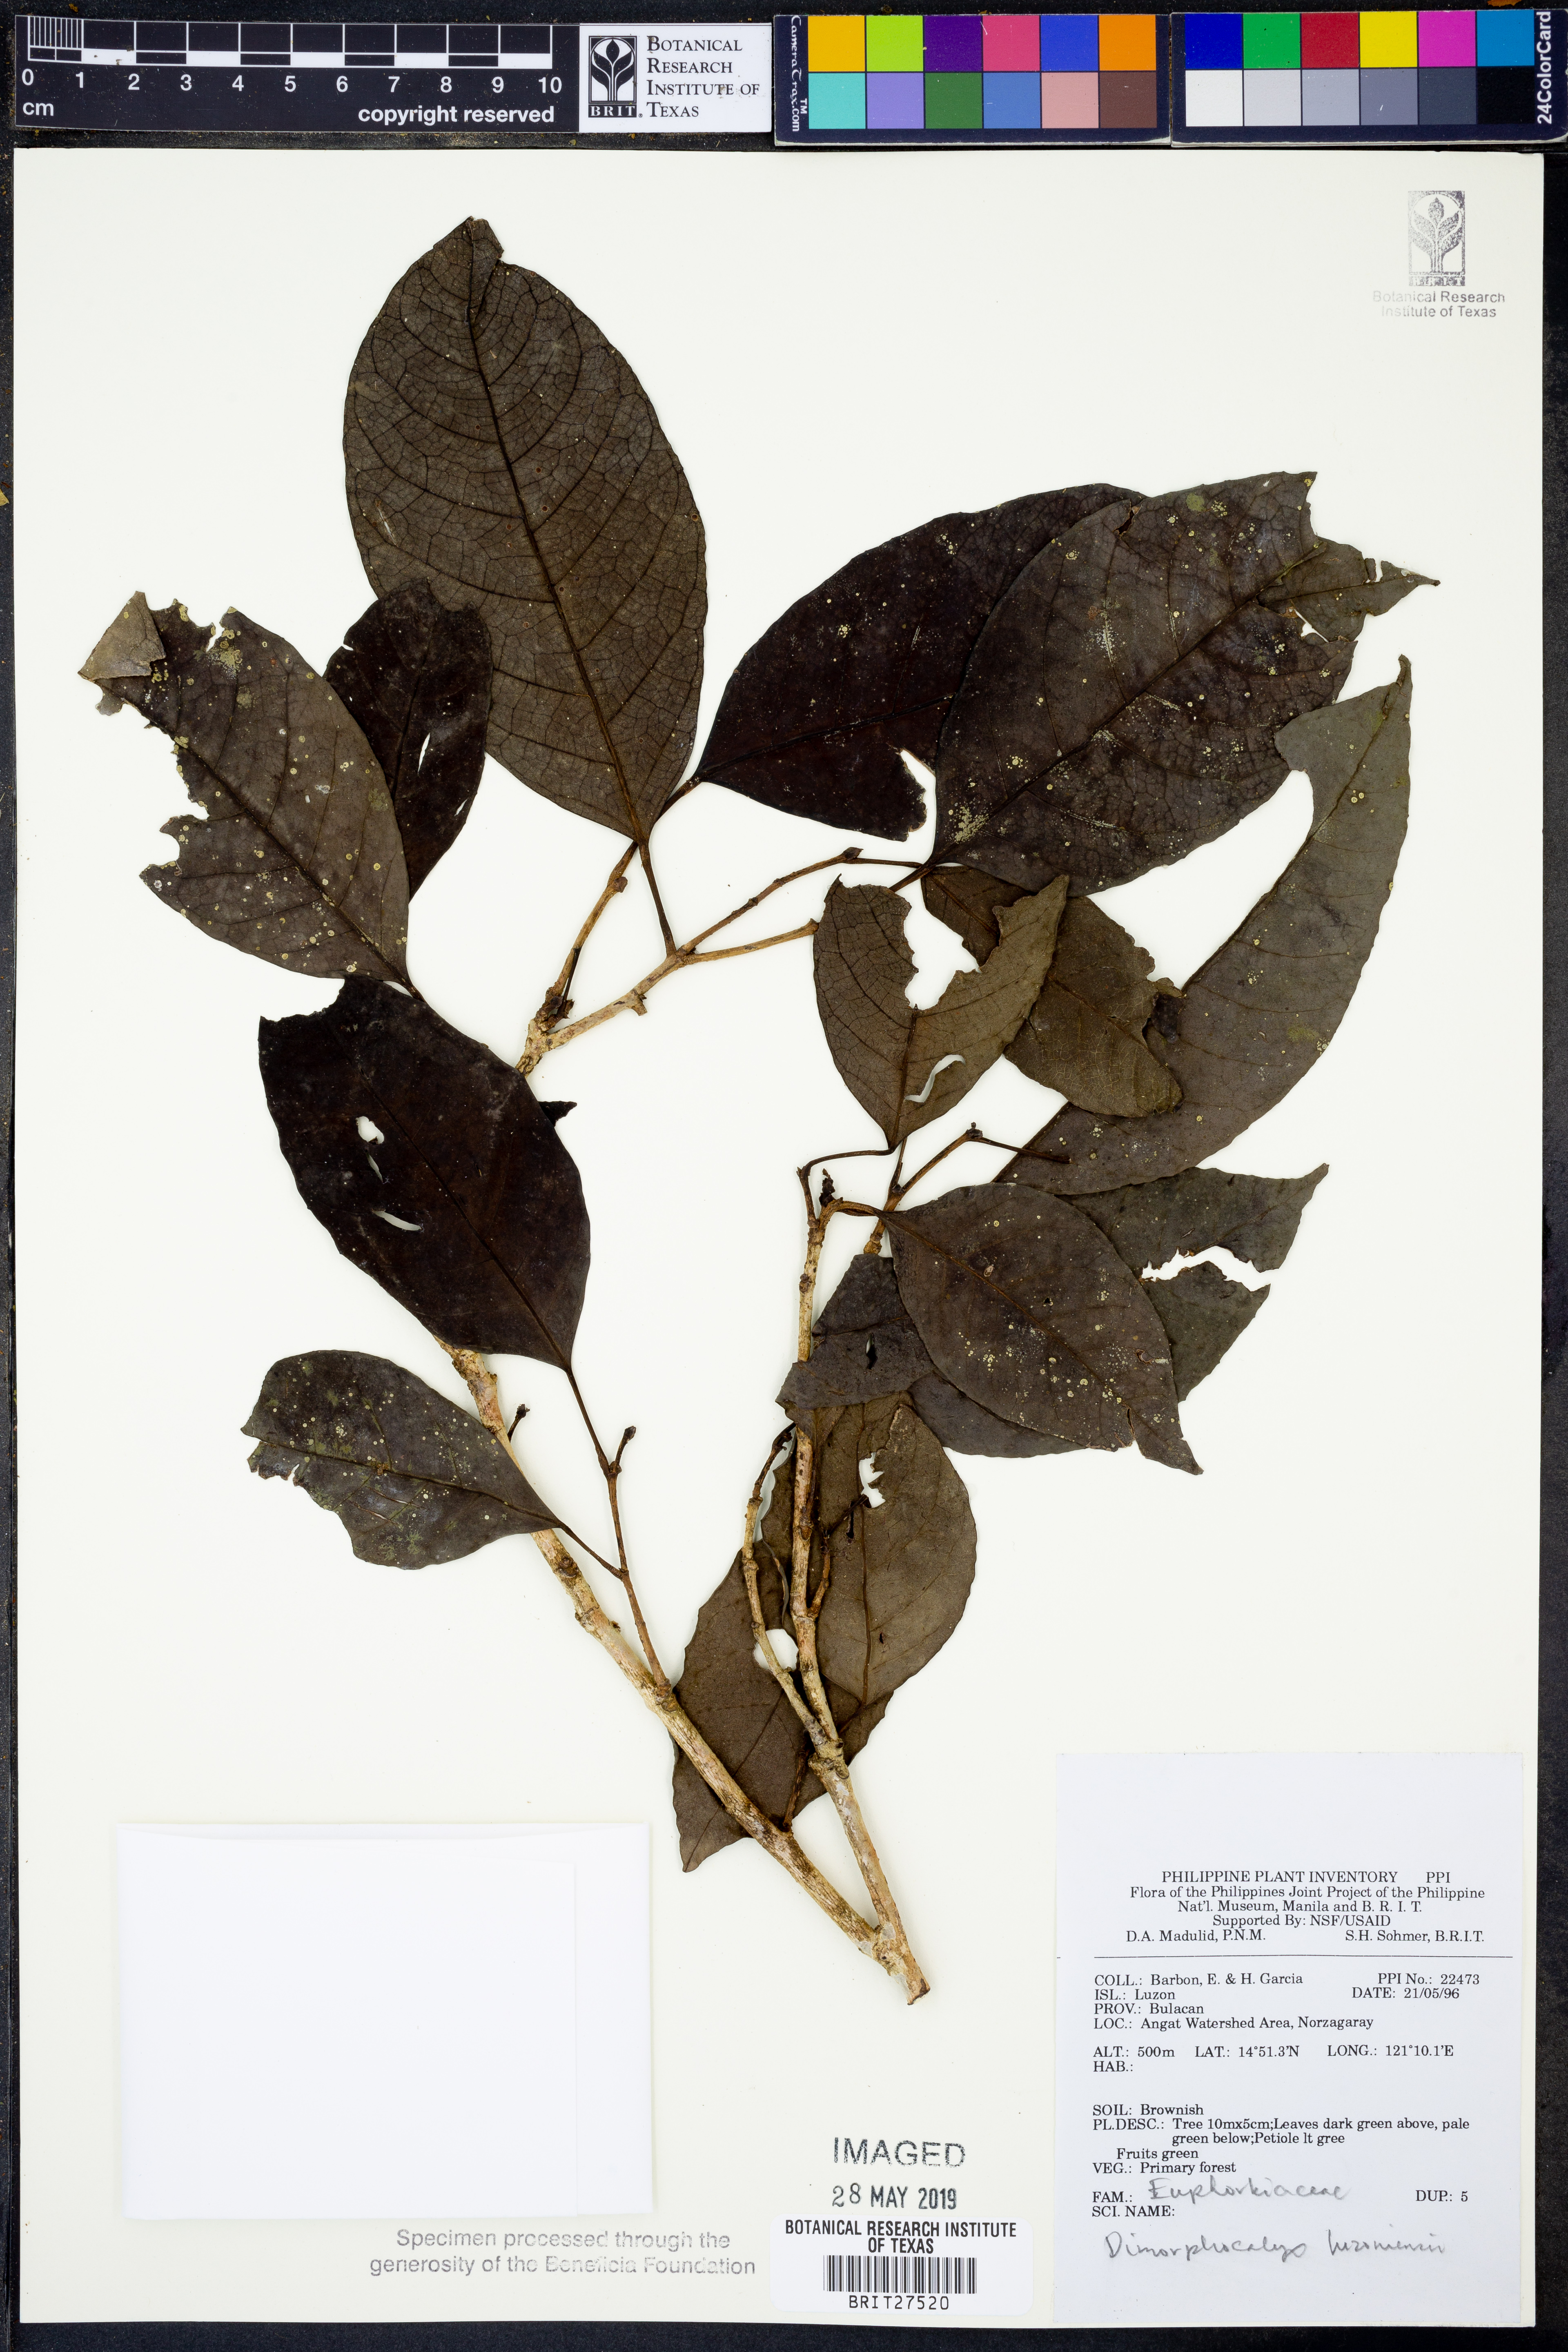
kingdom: Plantae
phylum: Tracheophyta
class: Magnoliopsida
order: Malpighiales
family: Euphorbiaceae
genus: Tritaxis
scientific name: Tritaxis
